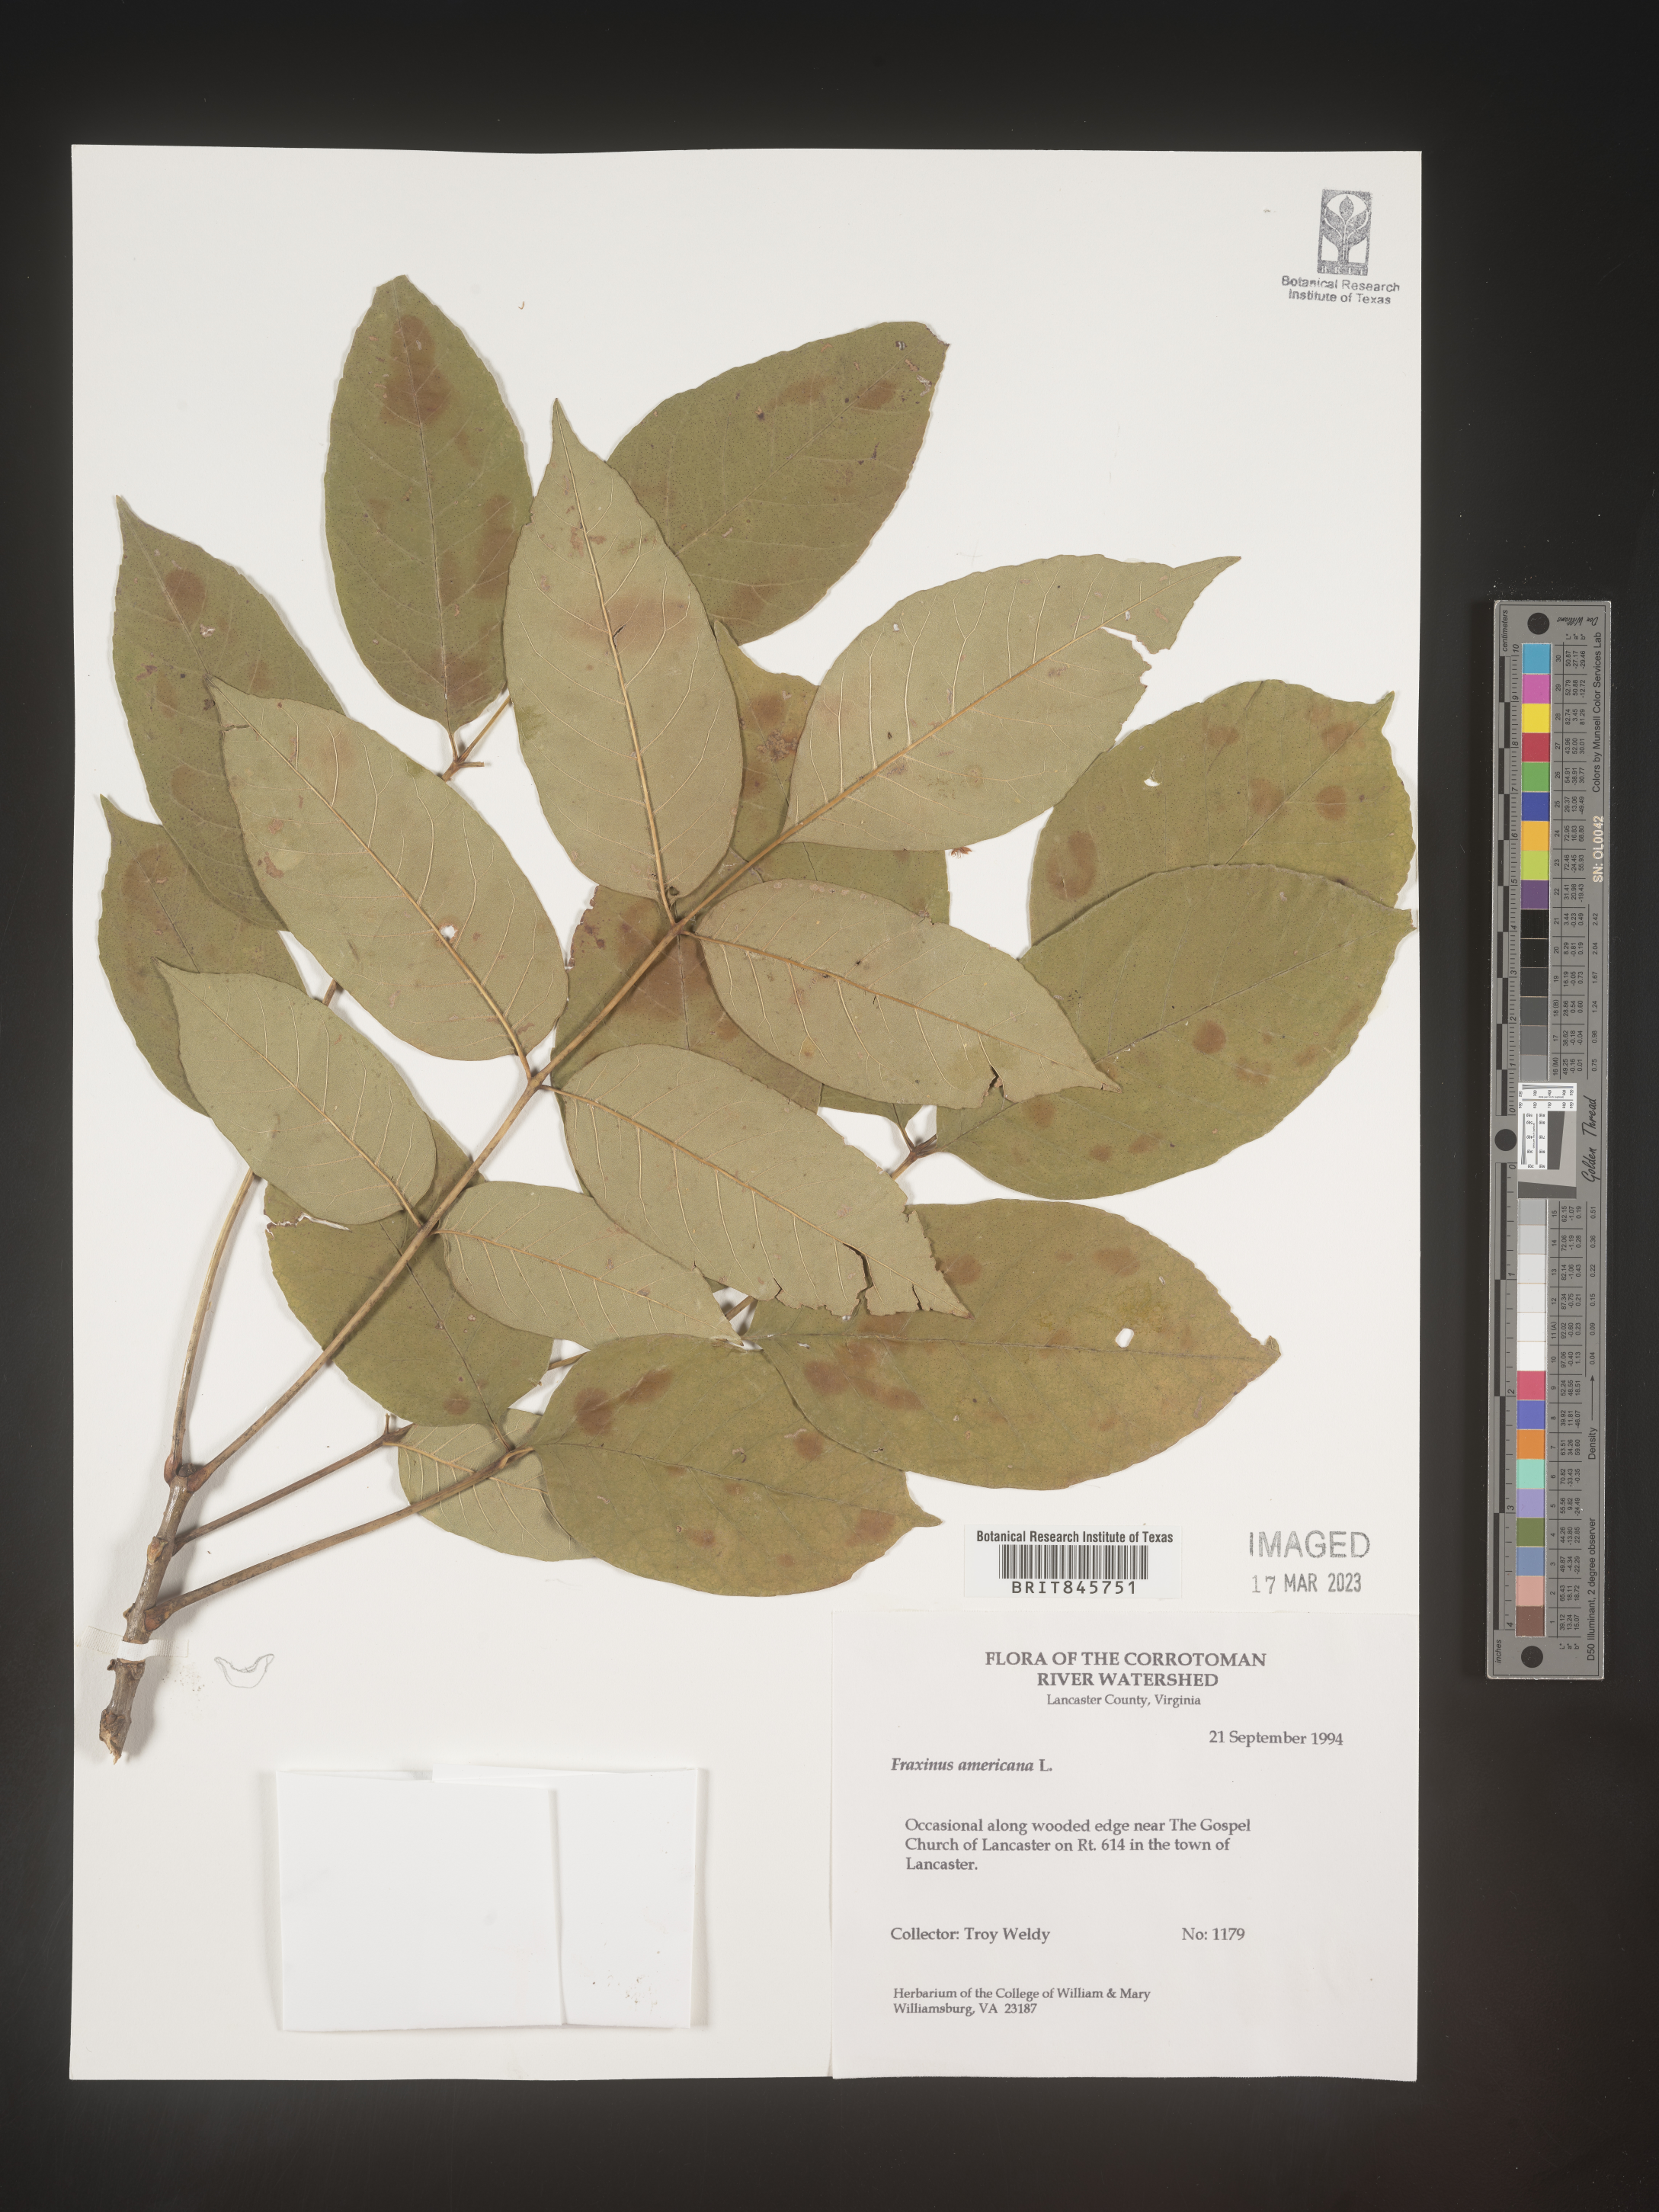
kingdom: Plantae
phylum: Tracheophyta
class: Magnoliopsida
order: Lamiales
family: Oleaceae
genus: Fraxinus
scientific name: Fraxinus americana
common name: White ash
